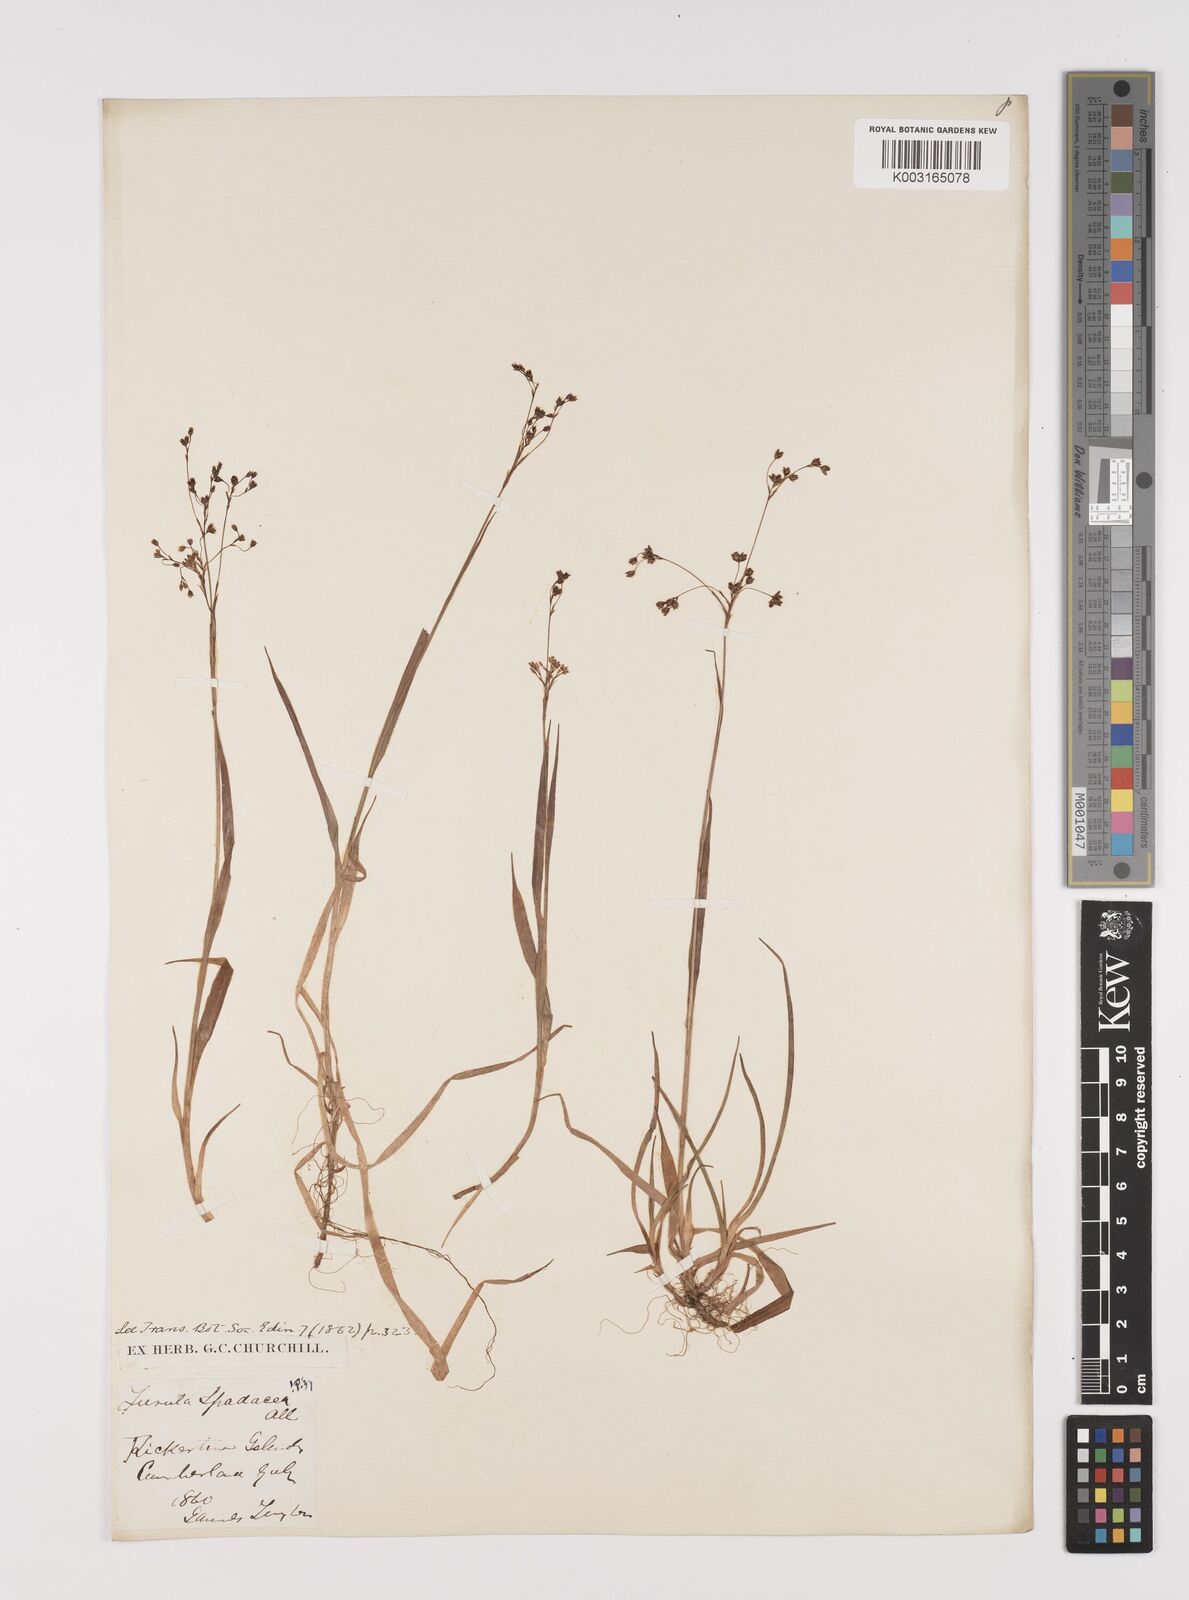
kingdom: Plantae
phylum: Tracheophyta
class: Liliopsida
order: Poales
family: Juncaceae
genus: Luzula
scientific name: Luzula alpinopilosa
